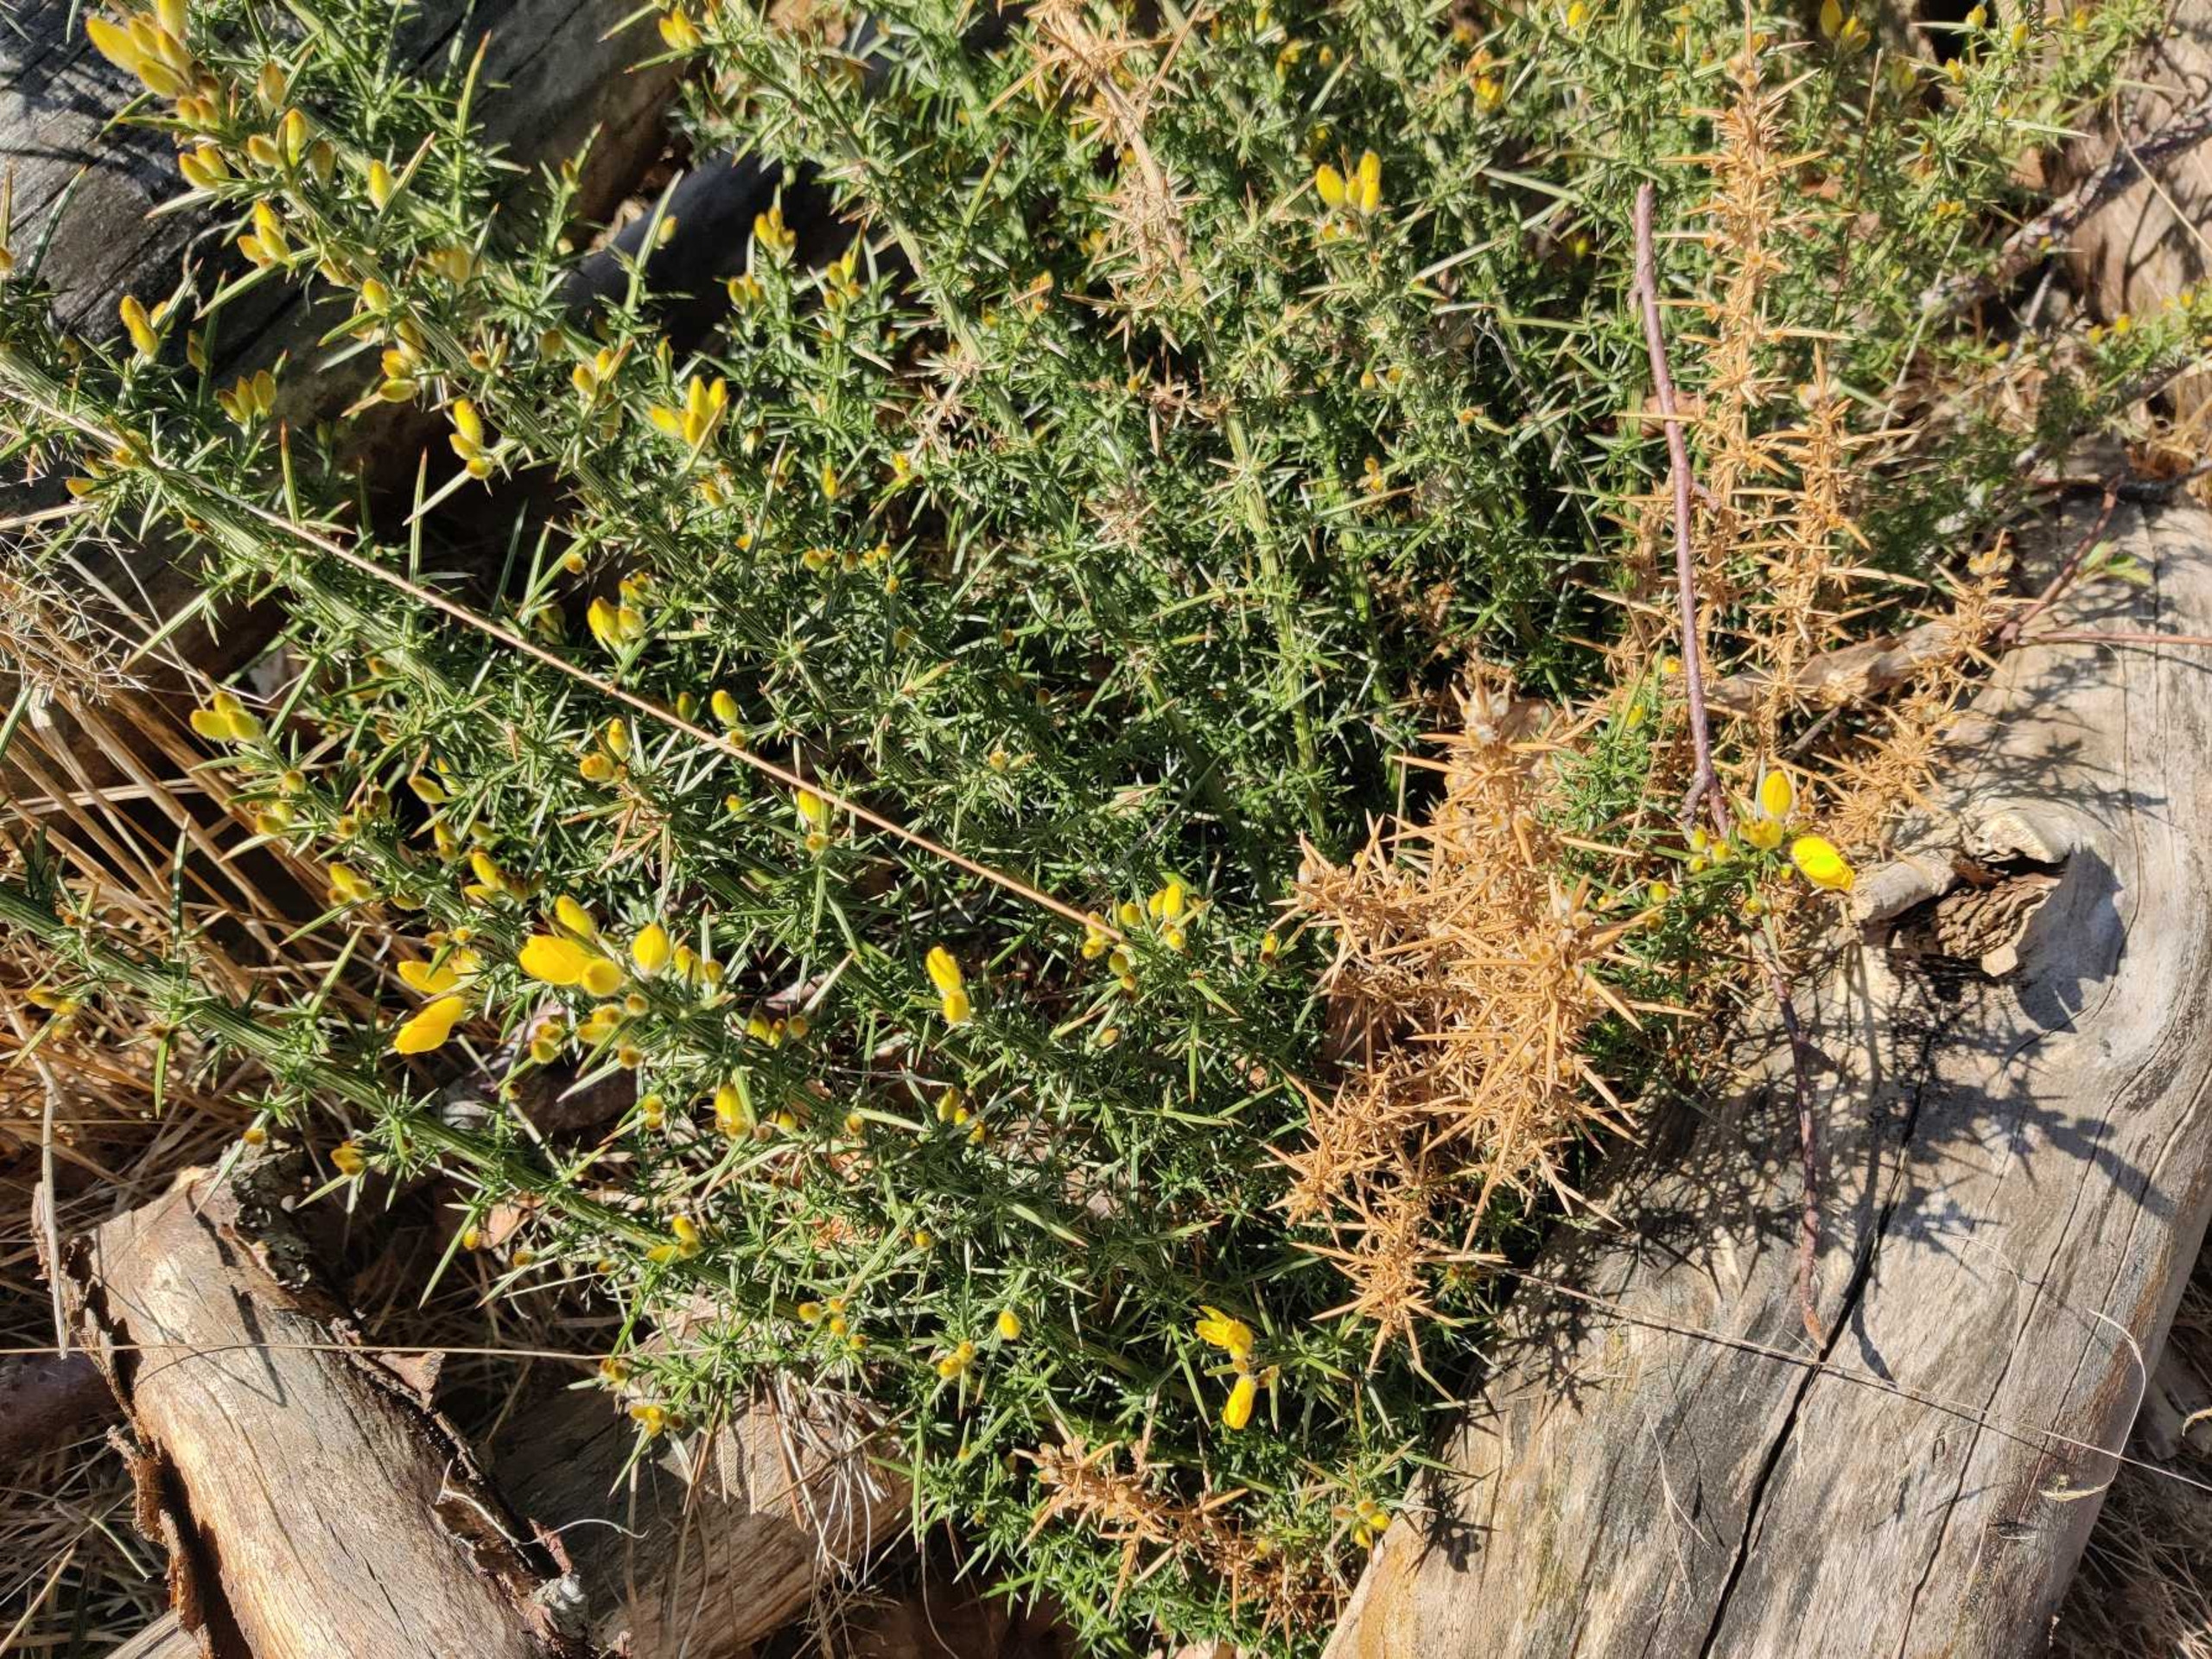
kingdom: Plantae
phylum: Tracheophyta
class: Magnoliopsida
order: Fabales
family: Fabaceae
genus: Ulex
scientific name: Ulex europaeus
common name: Tornblad
